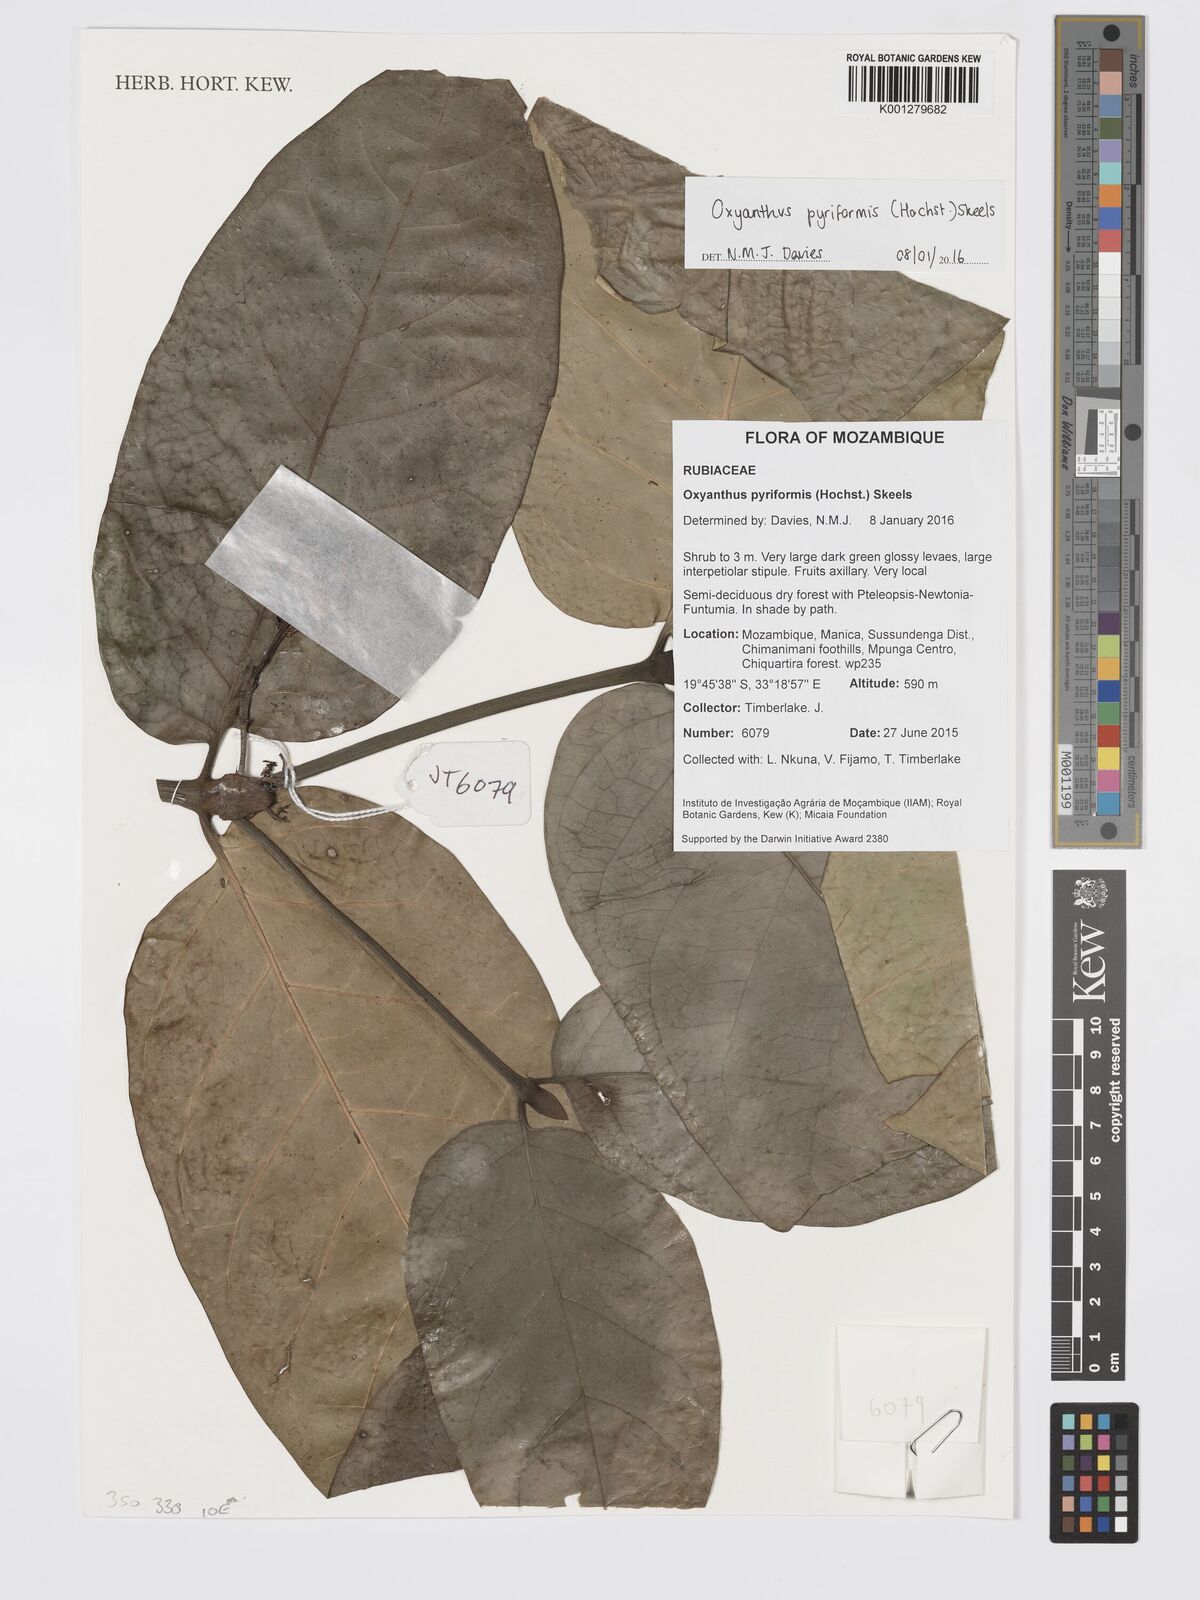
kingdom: Plantae
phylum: Tracheophyta
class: Magnoliopsida
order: Gentianales
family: Rubiaceae
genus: Oxyanthus
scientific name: Oxyanthus pyriformis
